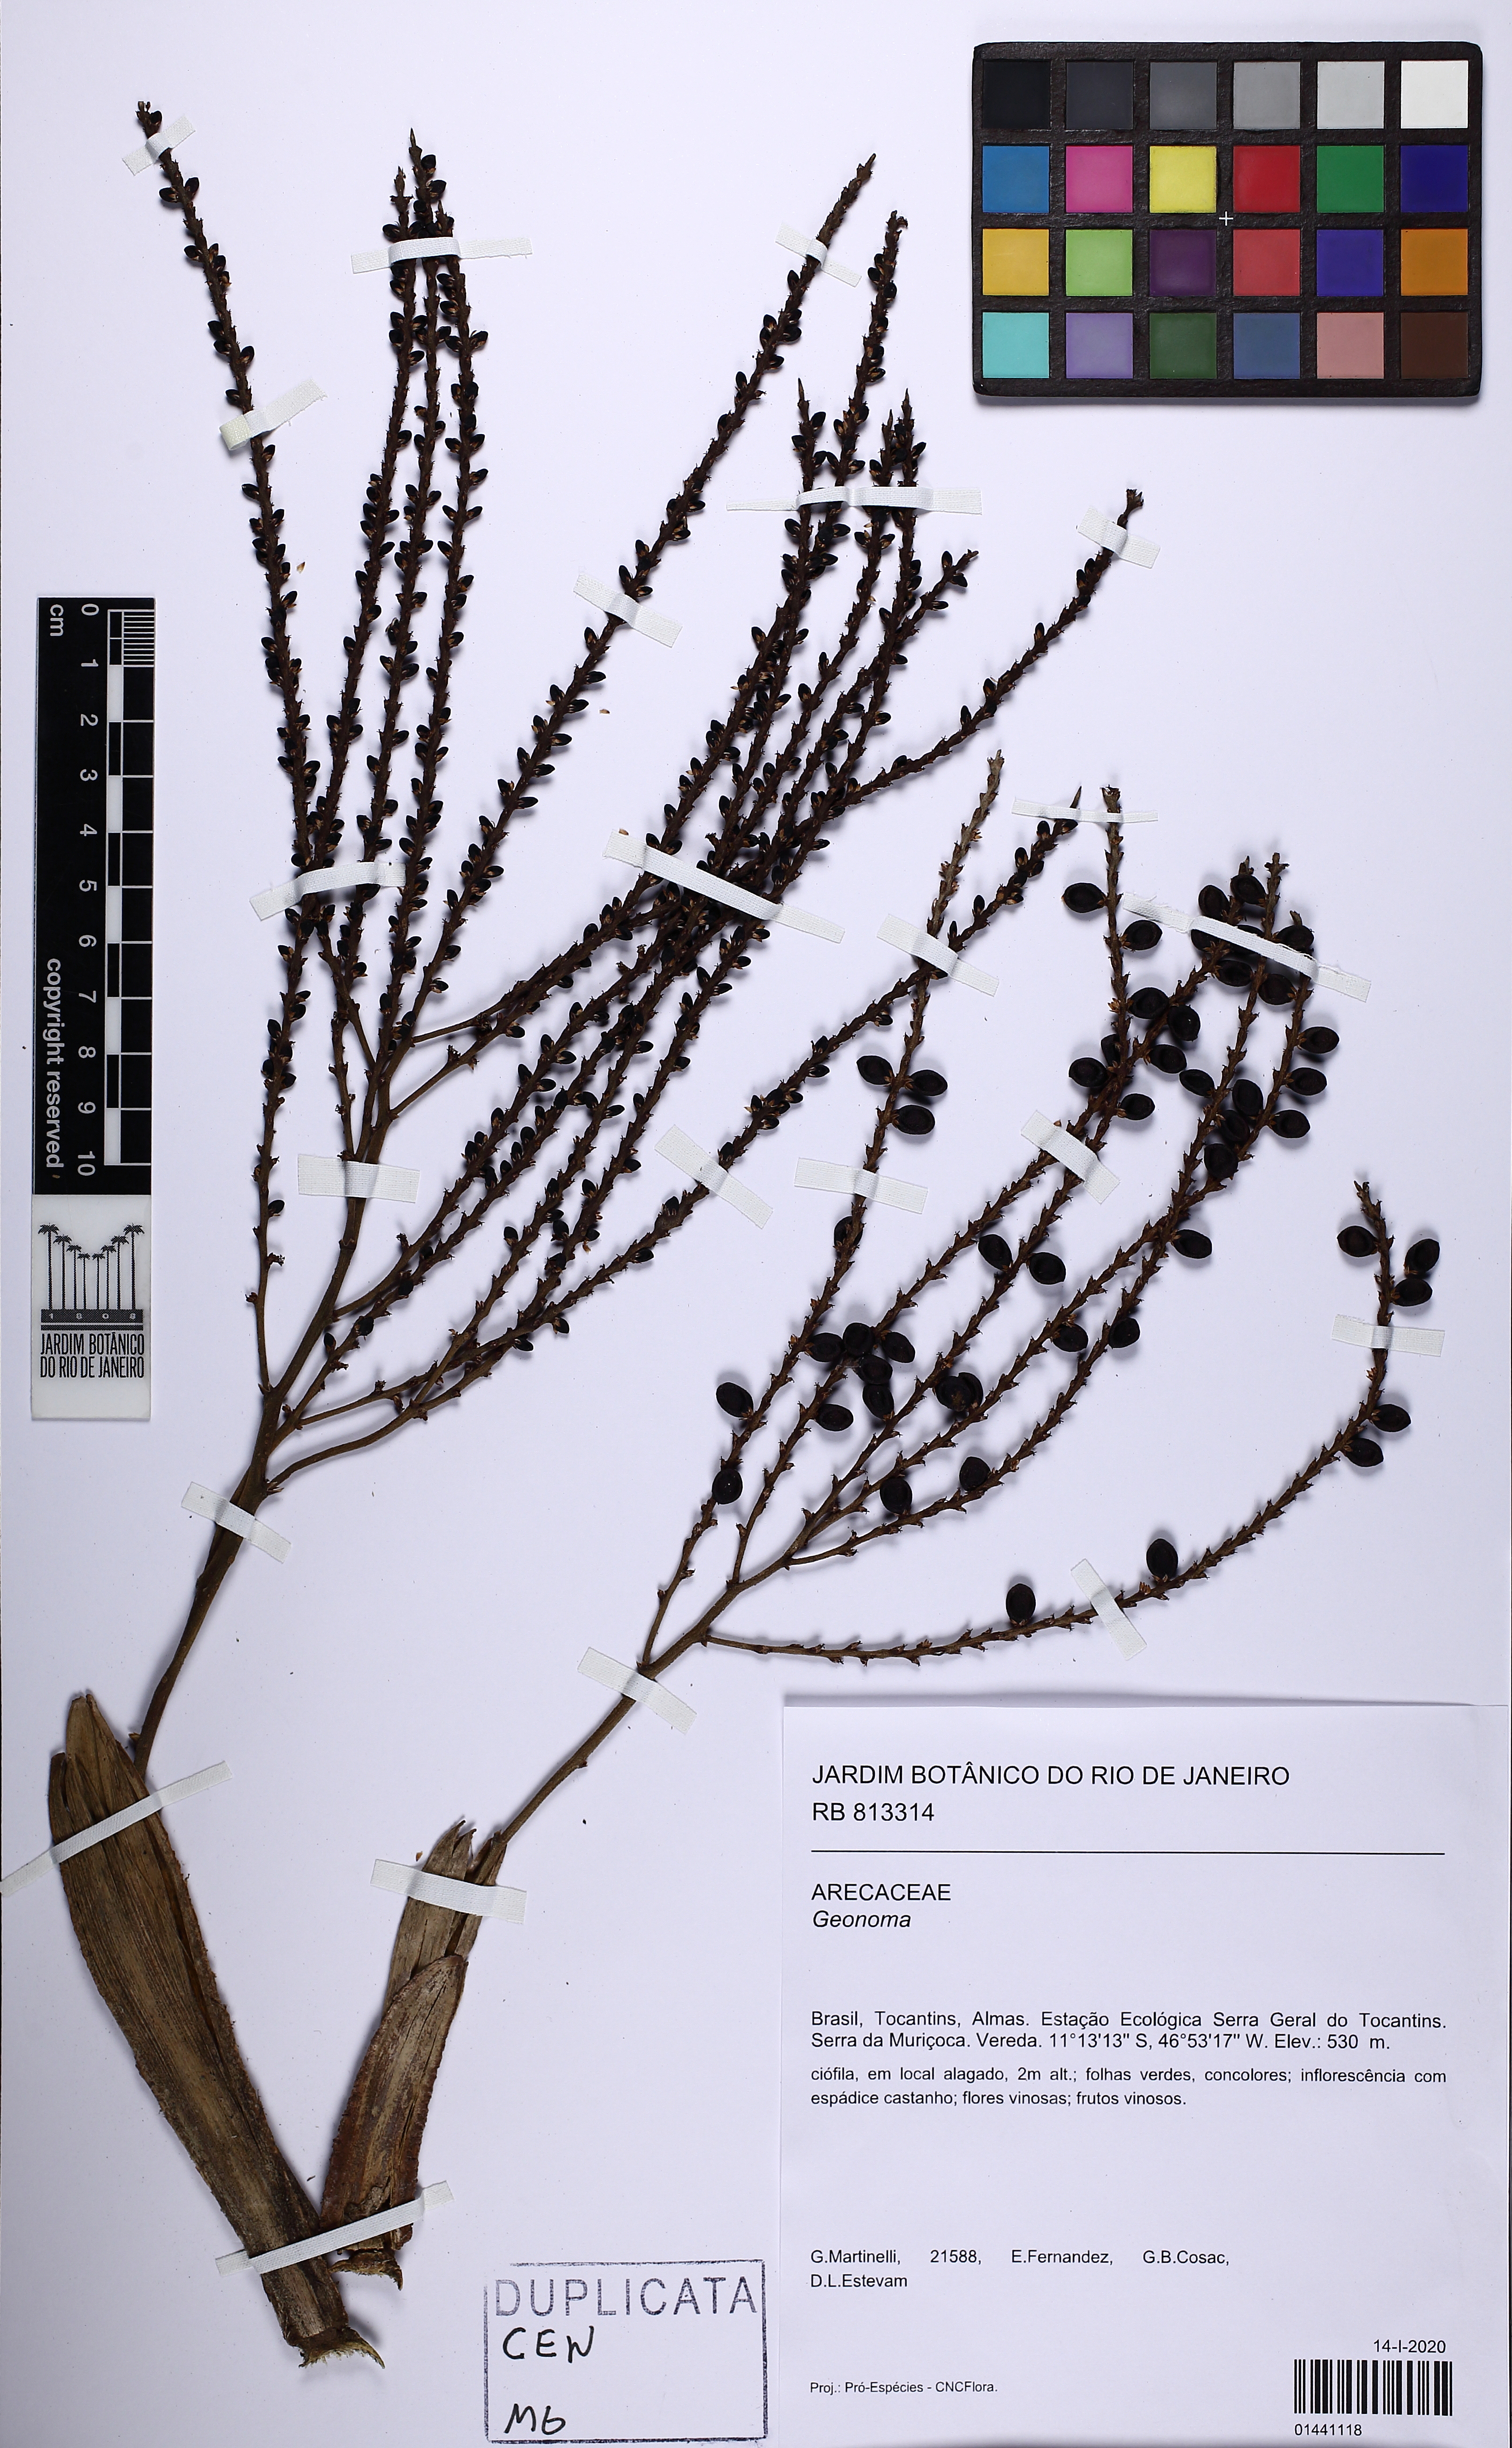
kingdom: Plantae
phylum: Tracheophyta
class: Liliopsida
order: Arecales
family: Arecaceae
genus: Geonoma
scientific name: Geonoma
